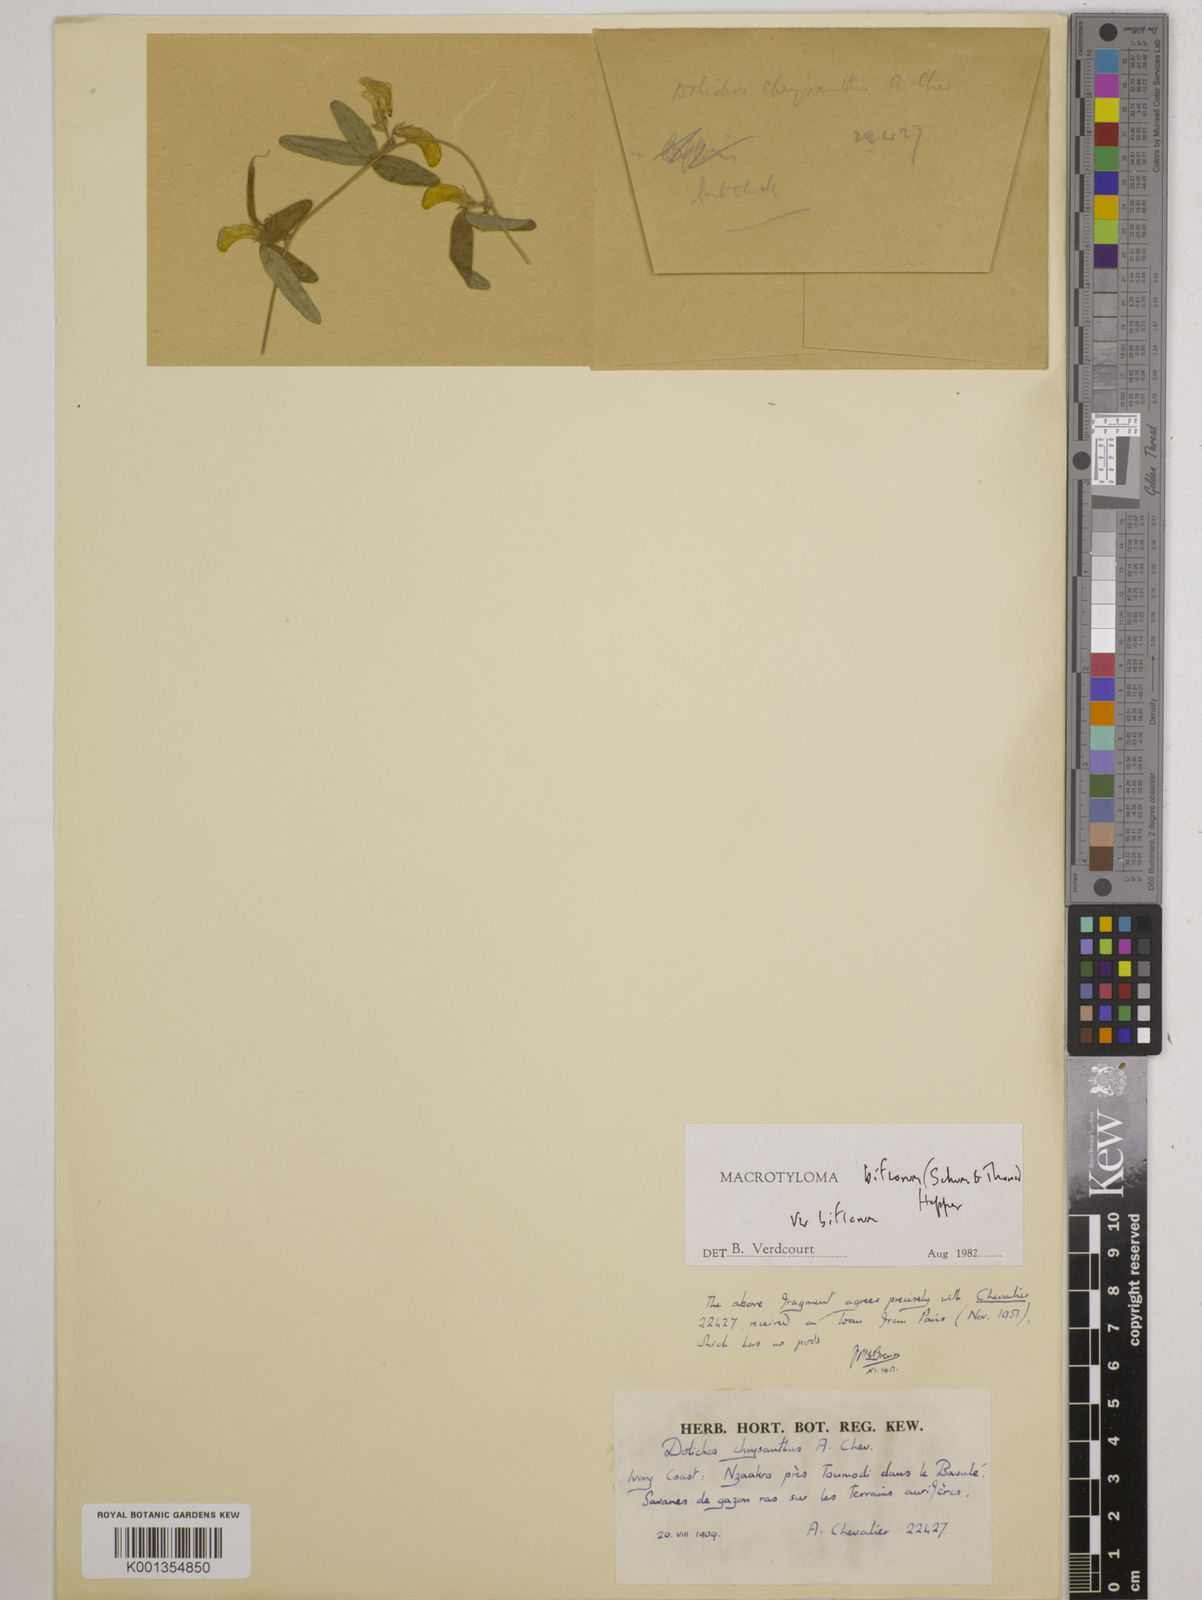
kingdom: Plantae
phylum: Tracheophyta
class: Magnoliopsida
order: Fabales
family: Fabaceae
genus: Macrotyloma
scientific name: Macrotyloma biflorum
